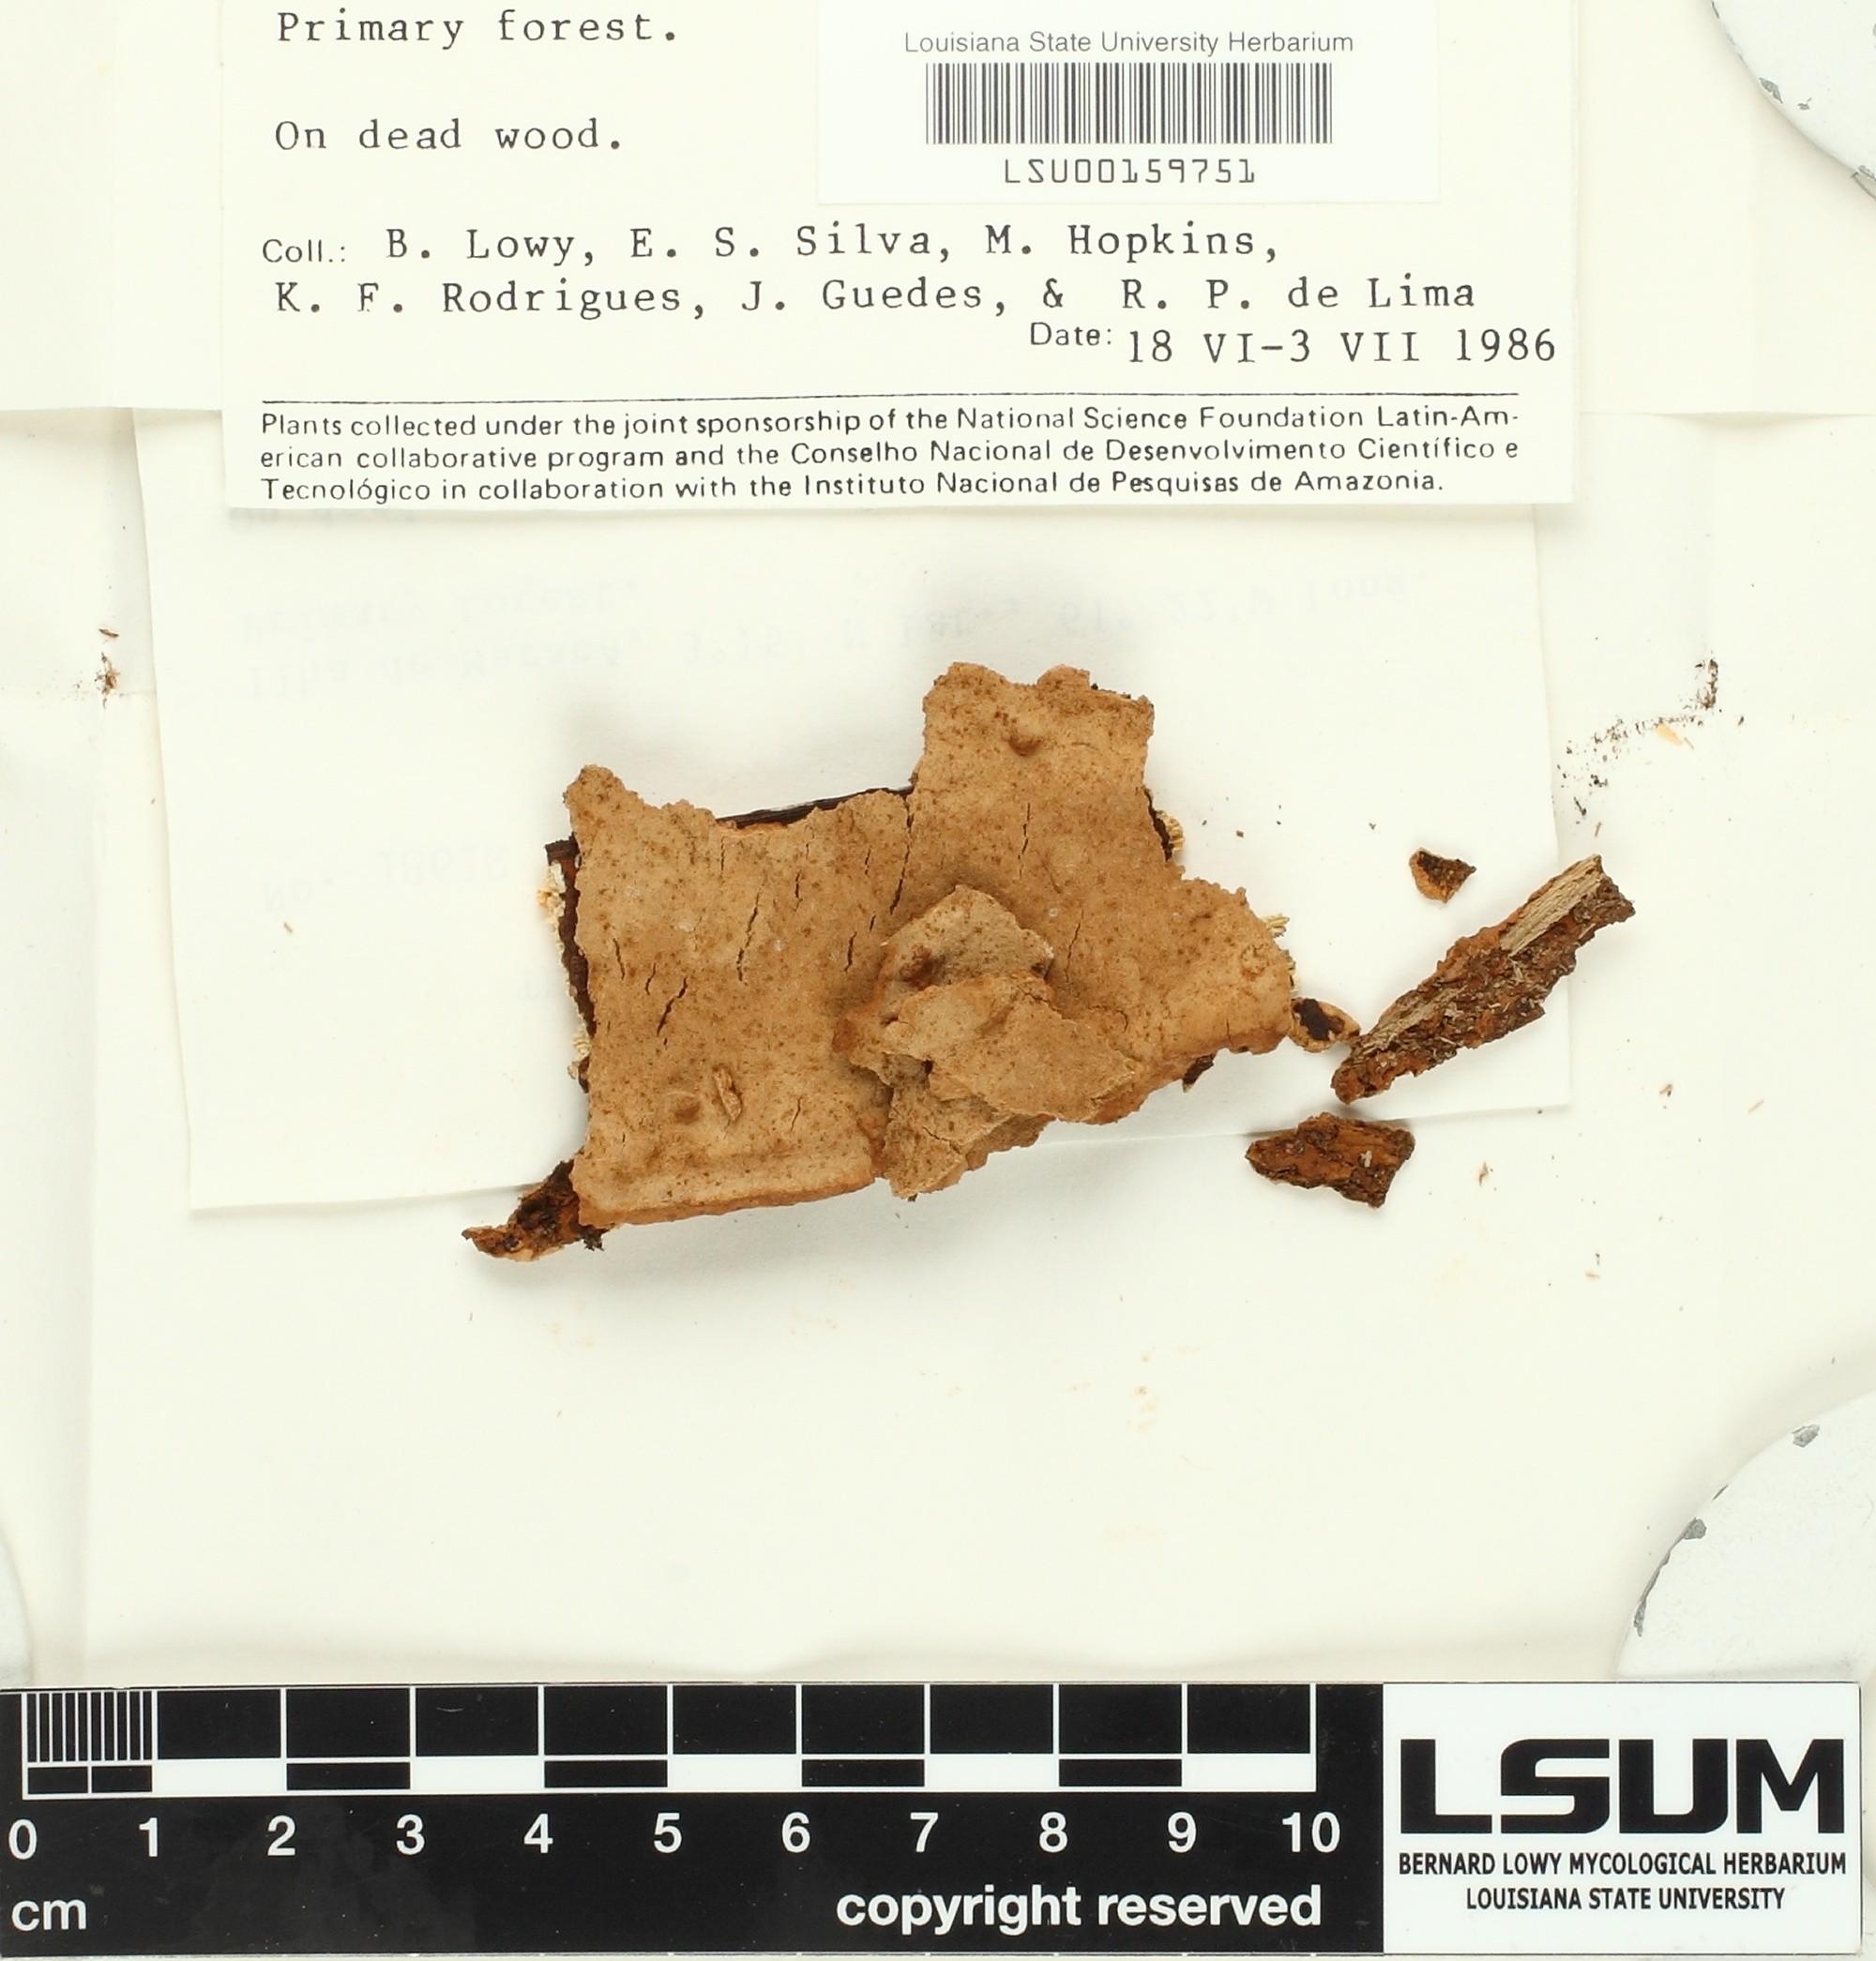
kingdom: Fungi
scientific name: Fungi
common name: Fungi
